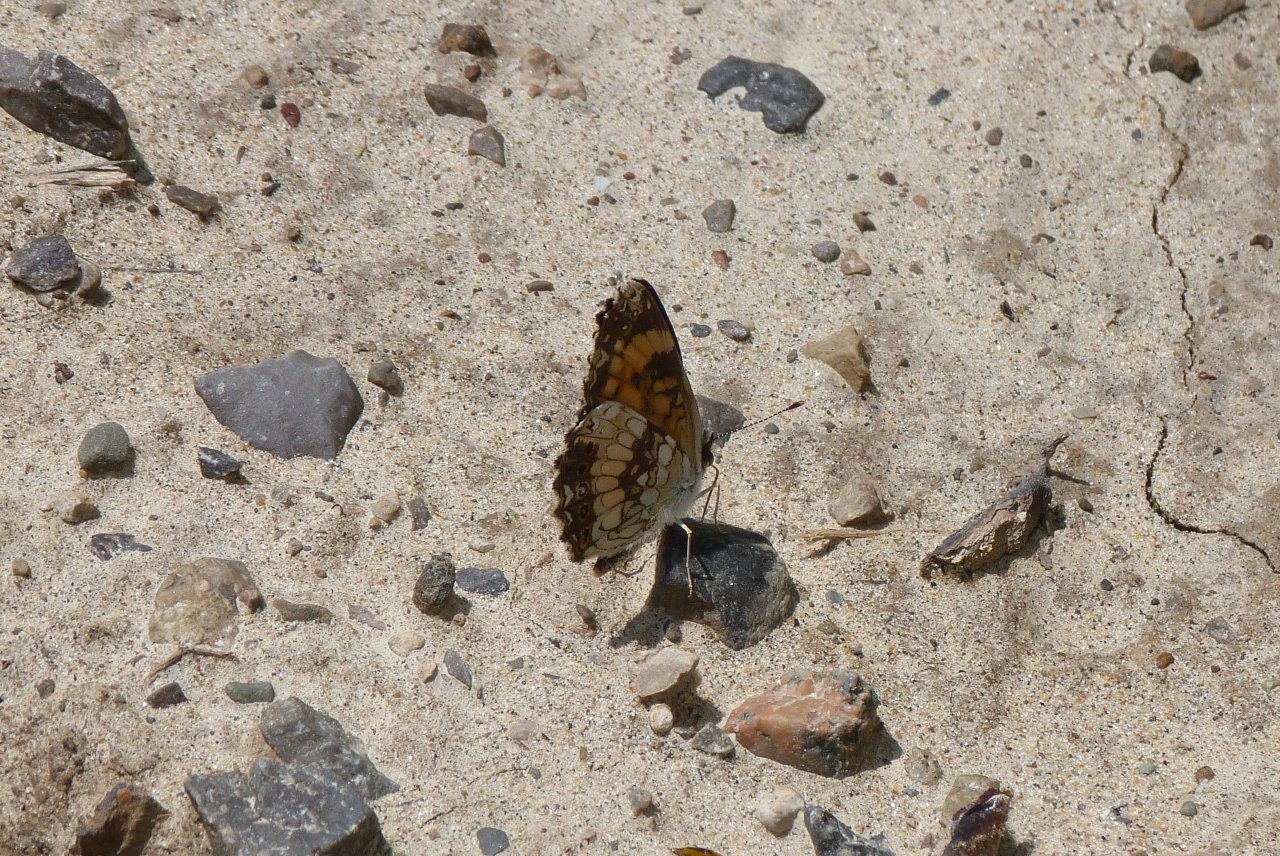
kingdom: Animalia
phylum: Arthropoda
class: Insecta
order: Lepidoptera
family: Nymphalidae
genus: Chlosyne
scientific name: Chlosyne nycteis
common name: Silvery Checkerspot
